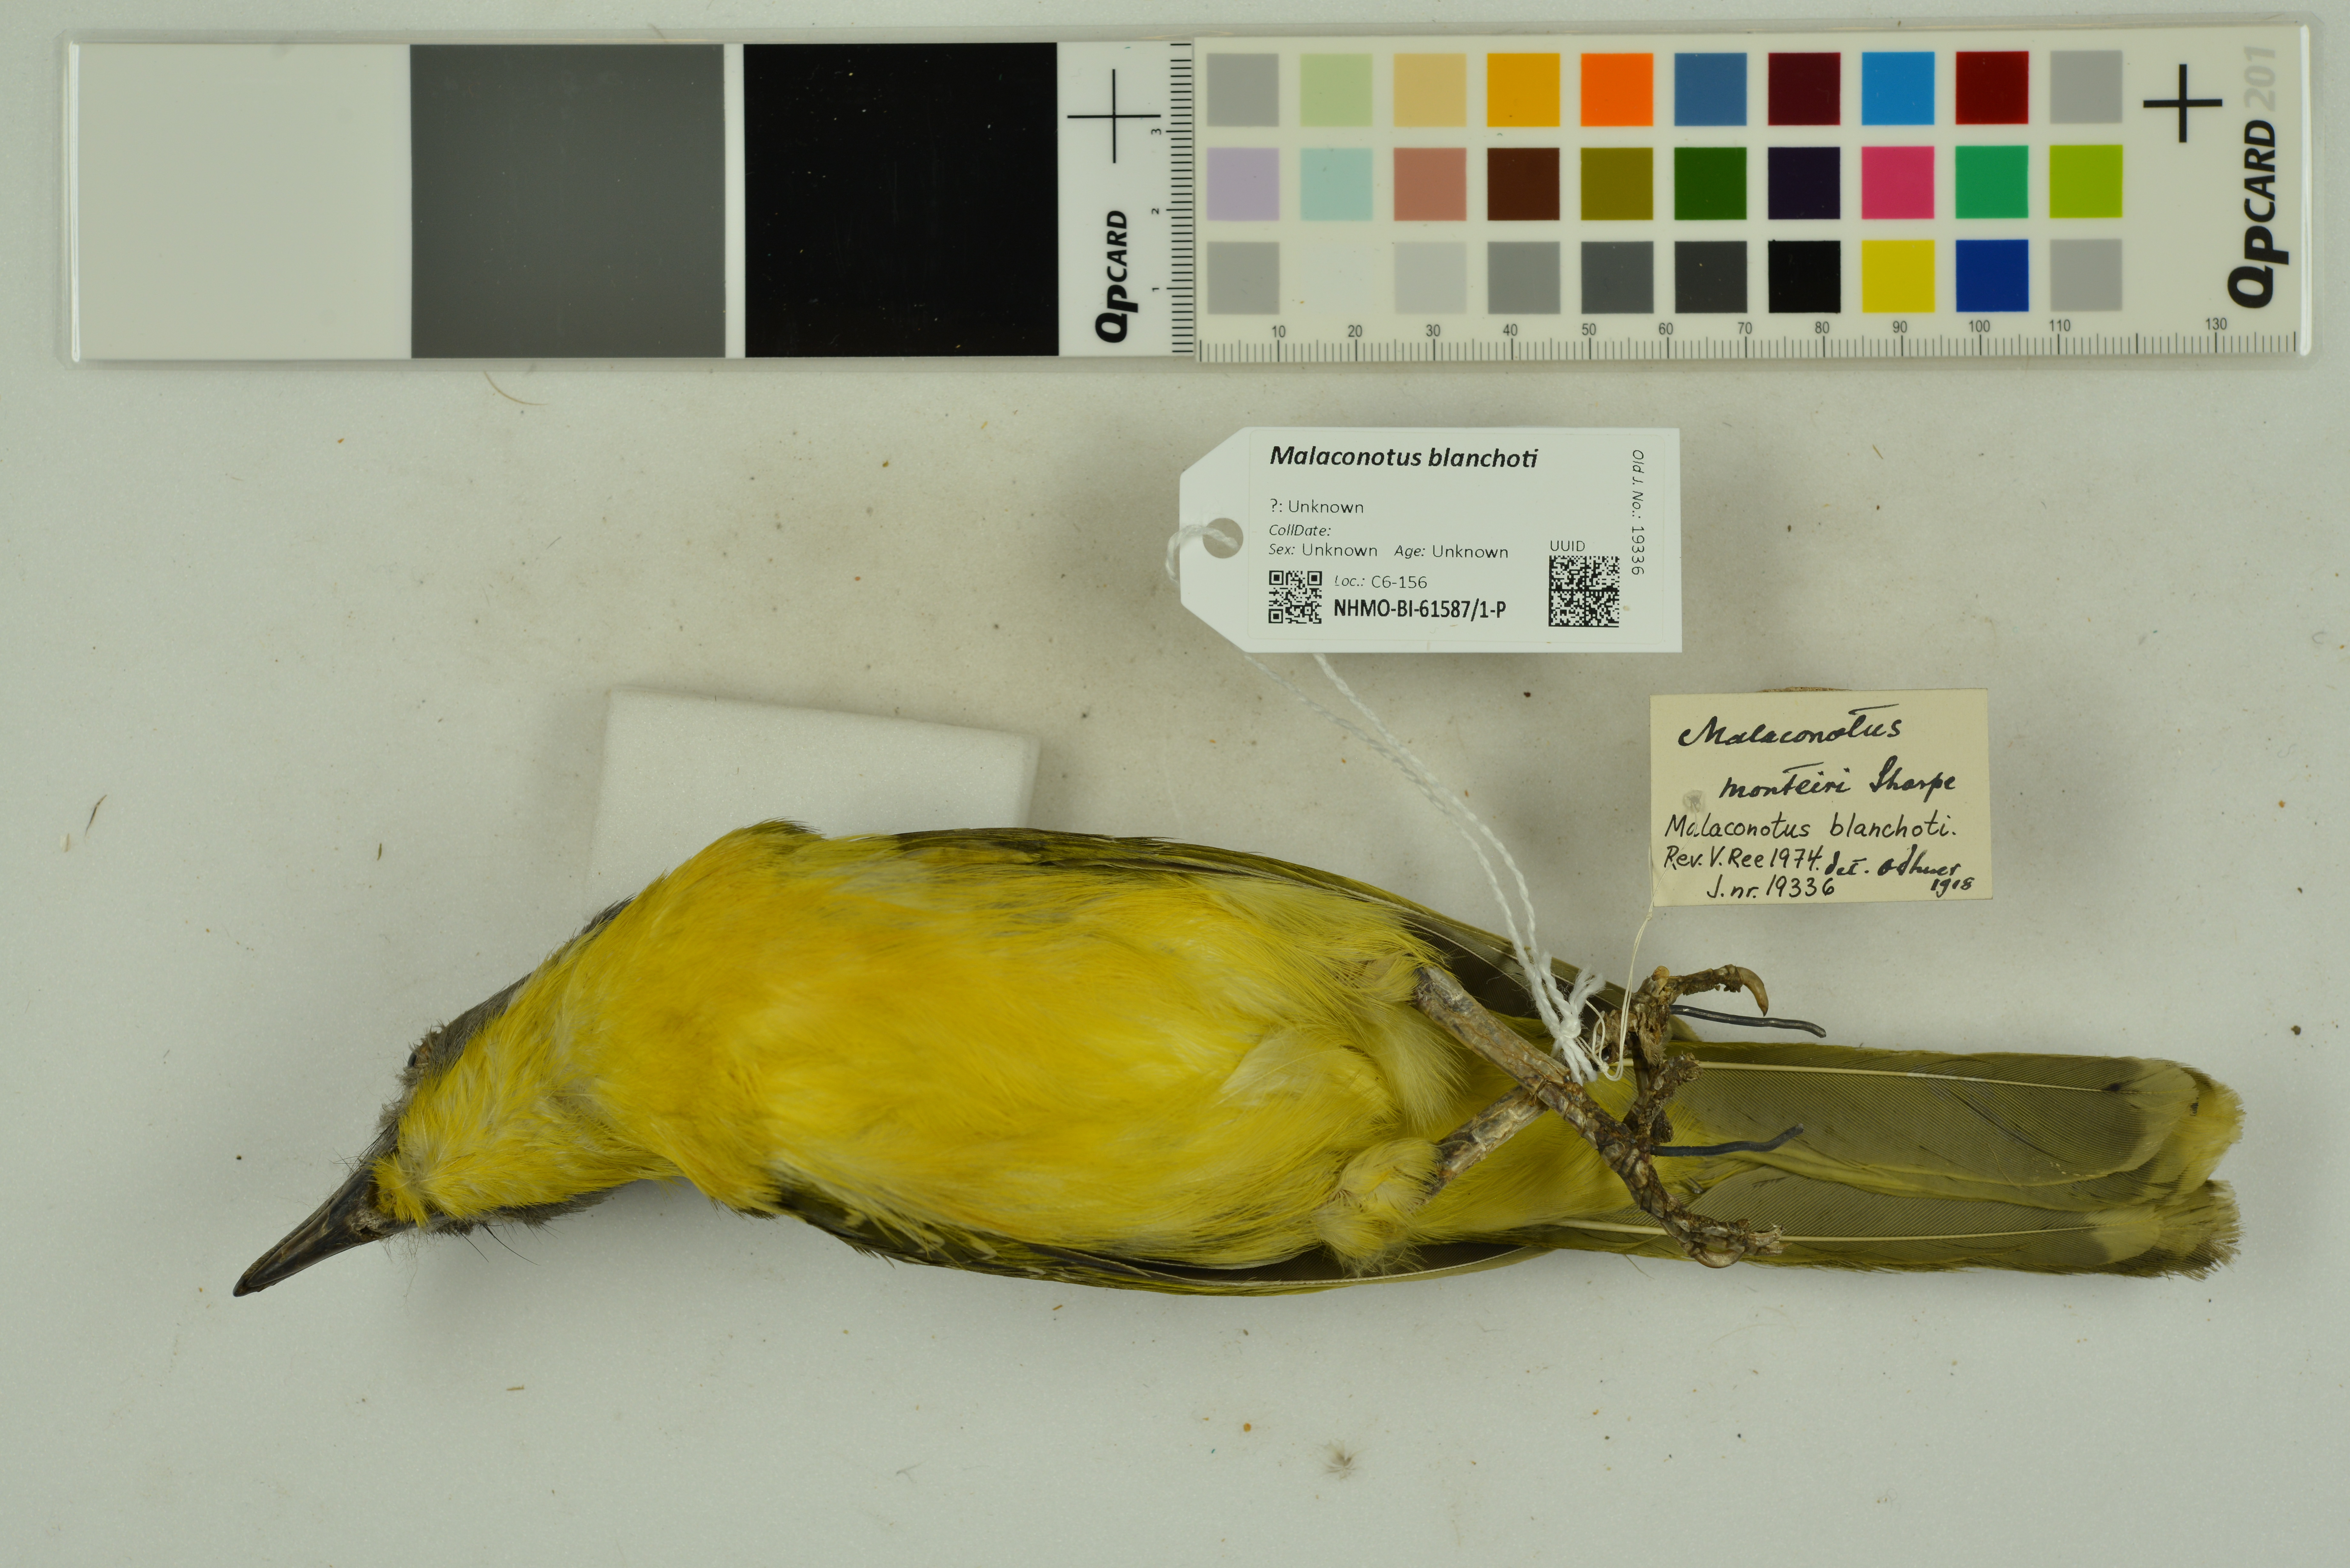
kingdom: Animalia
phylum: Chordata
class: Aves
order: Passeriformes
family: Malaconotidae
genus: Malaconotus
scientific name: Malaconotus blanchoti
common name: Grey-headed bushshrike
